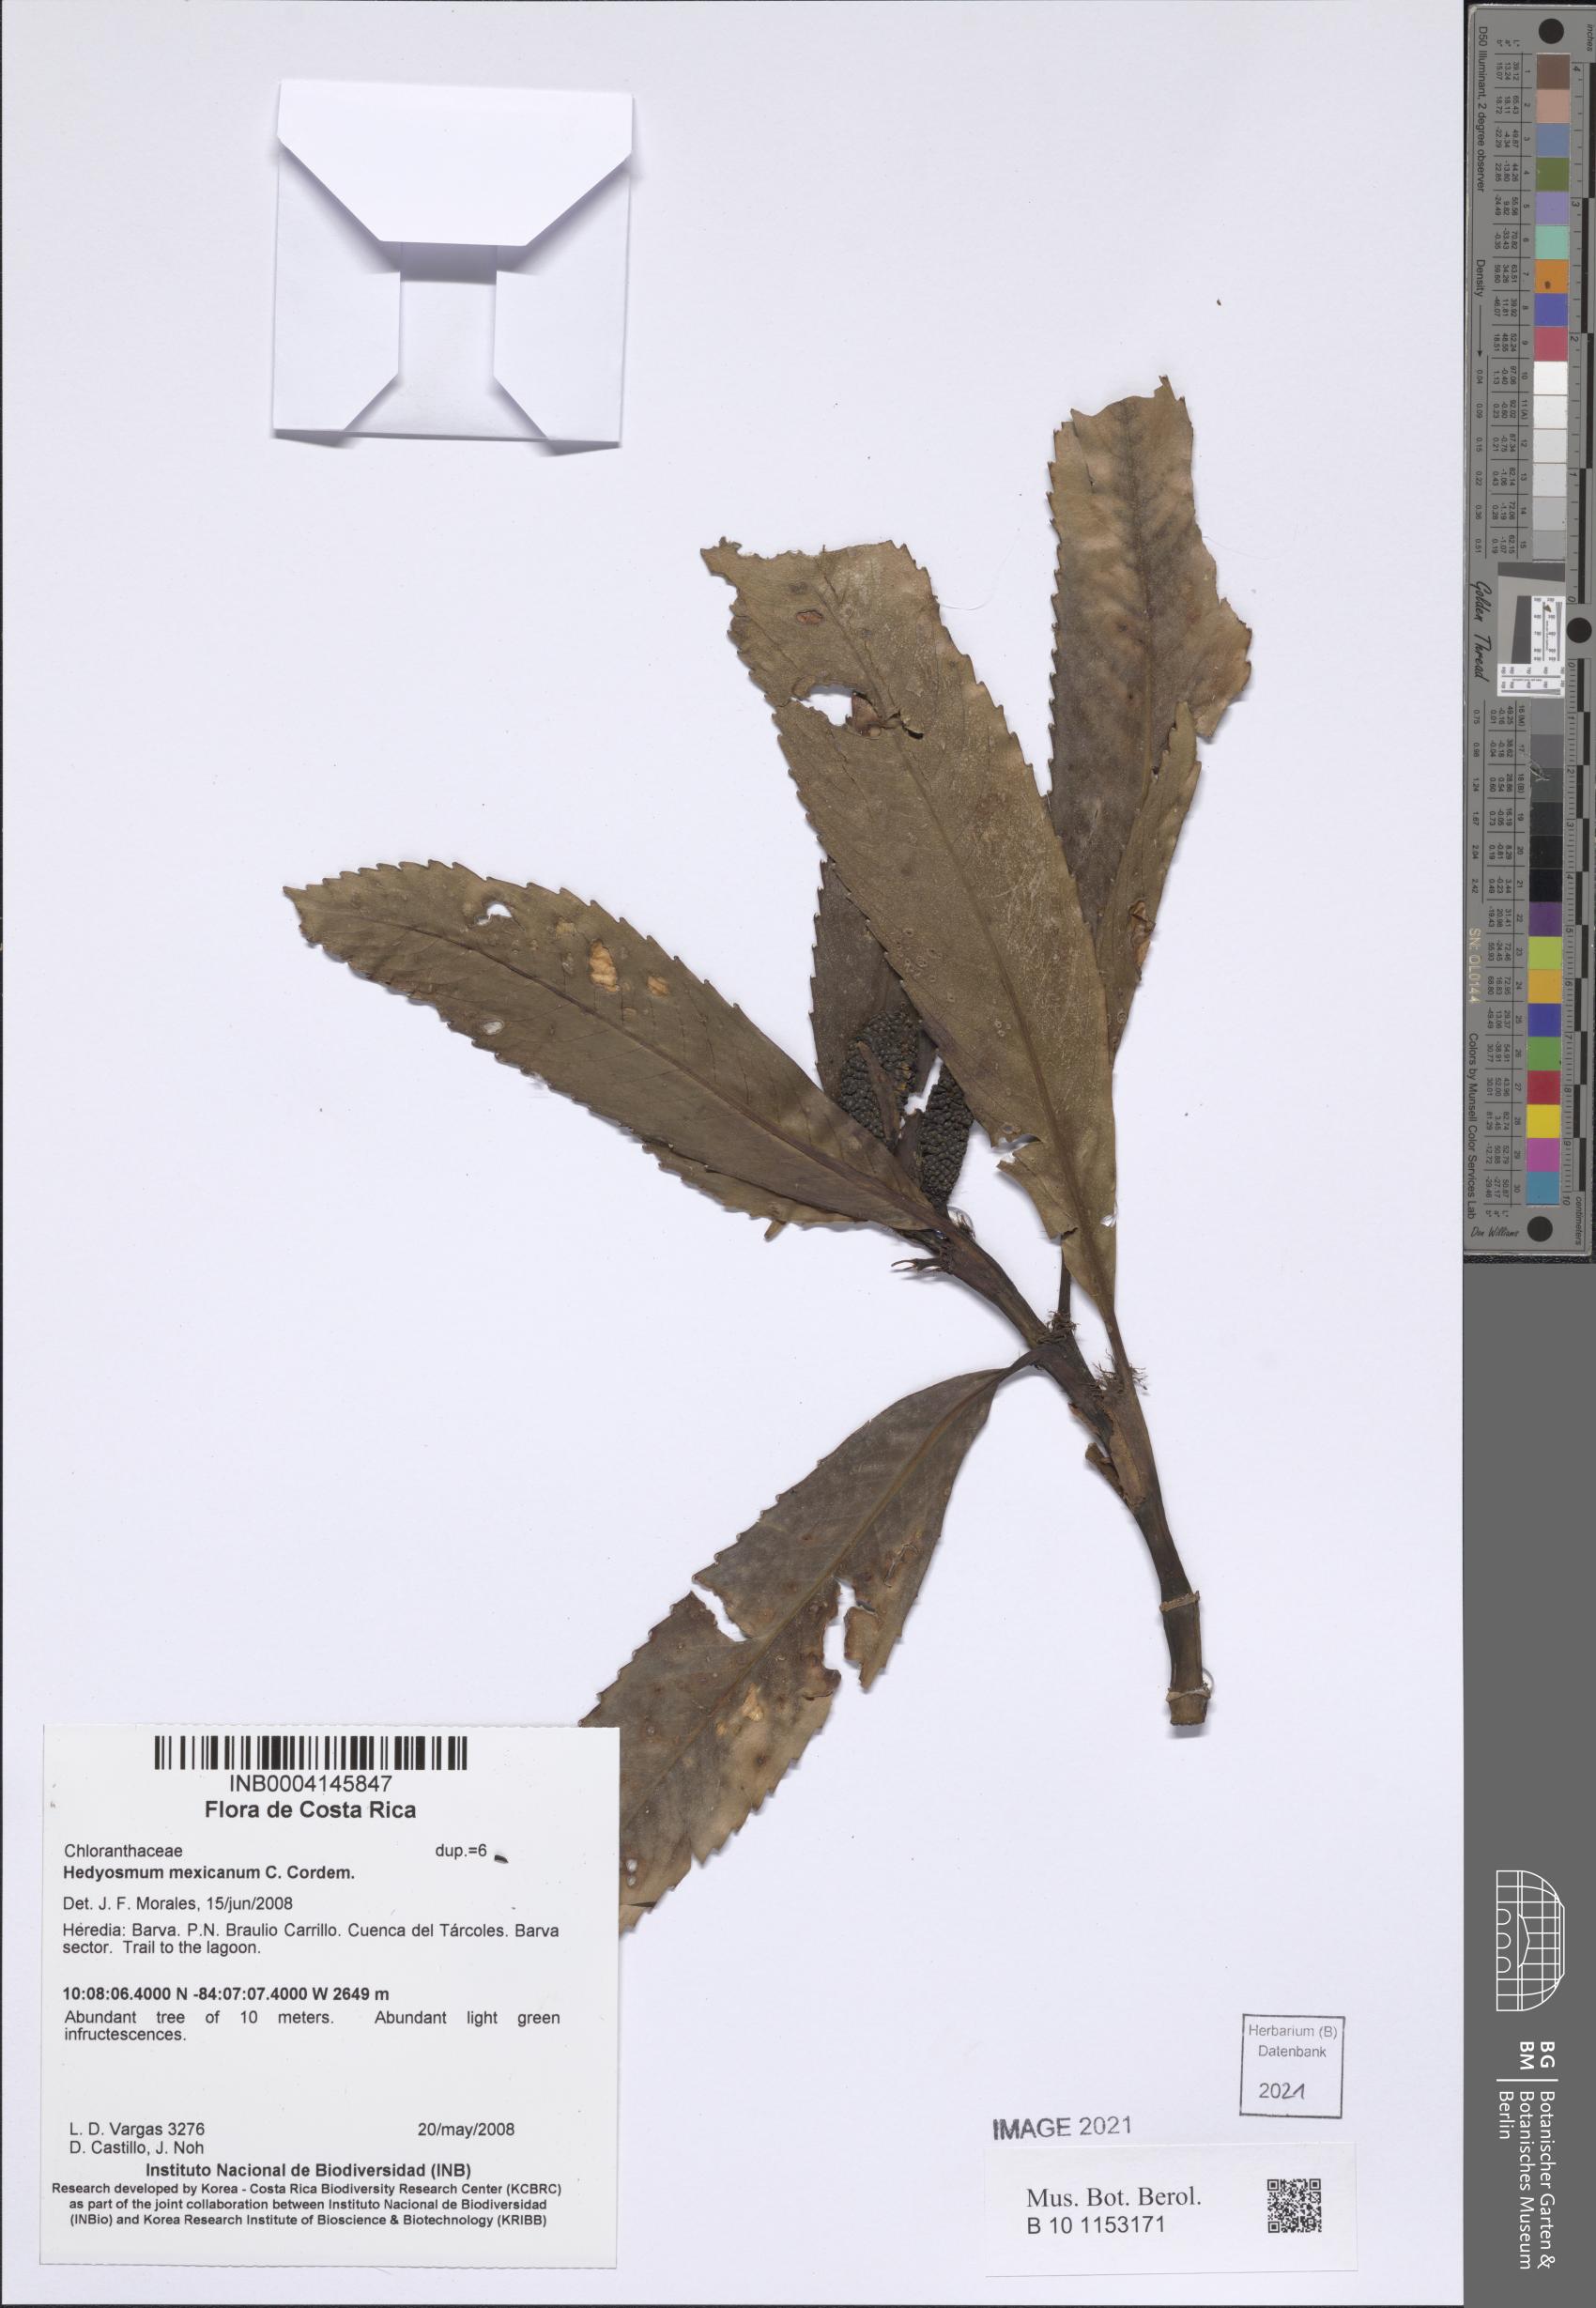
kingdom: Plantae
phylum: Tracheophyta
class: Magnoliopsida
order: Chloranthales
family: Chloranthaceae
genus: Hedyosmum
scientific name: Hedyosmum mexicanum
